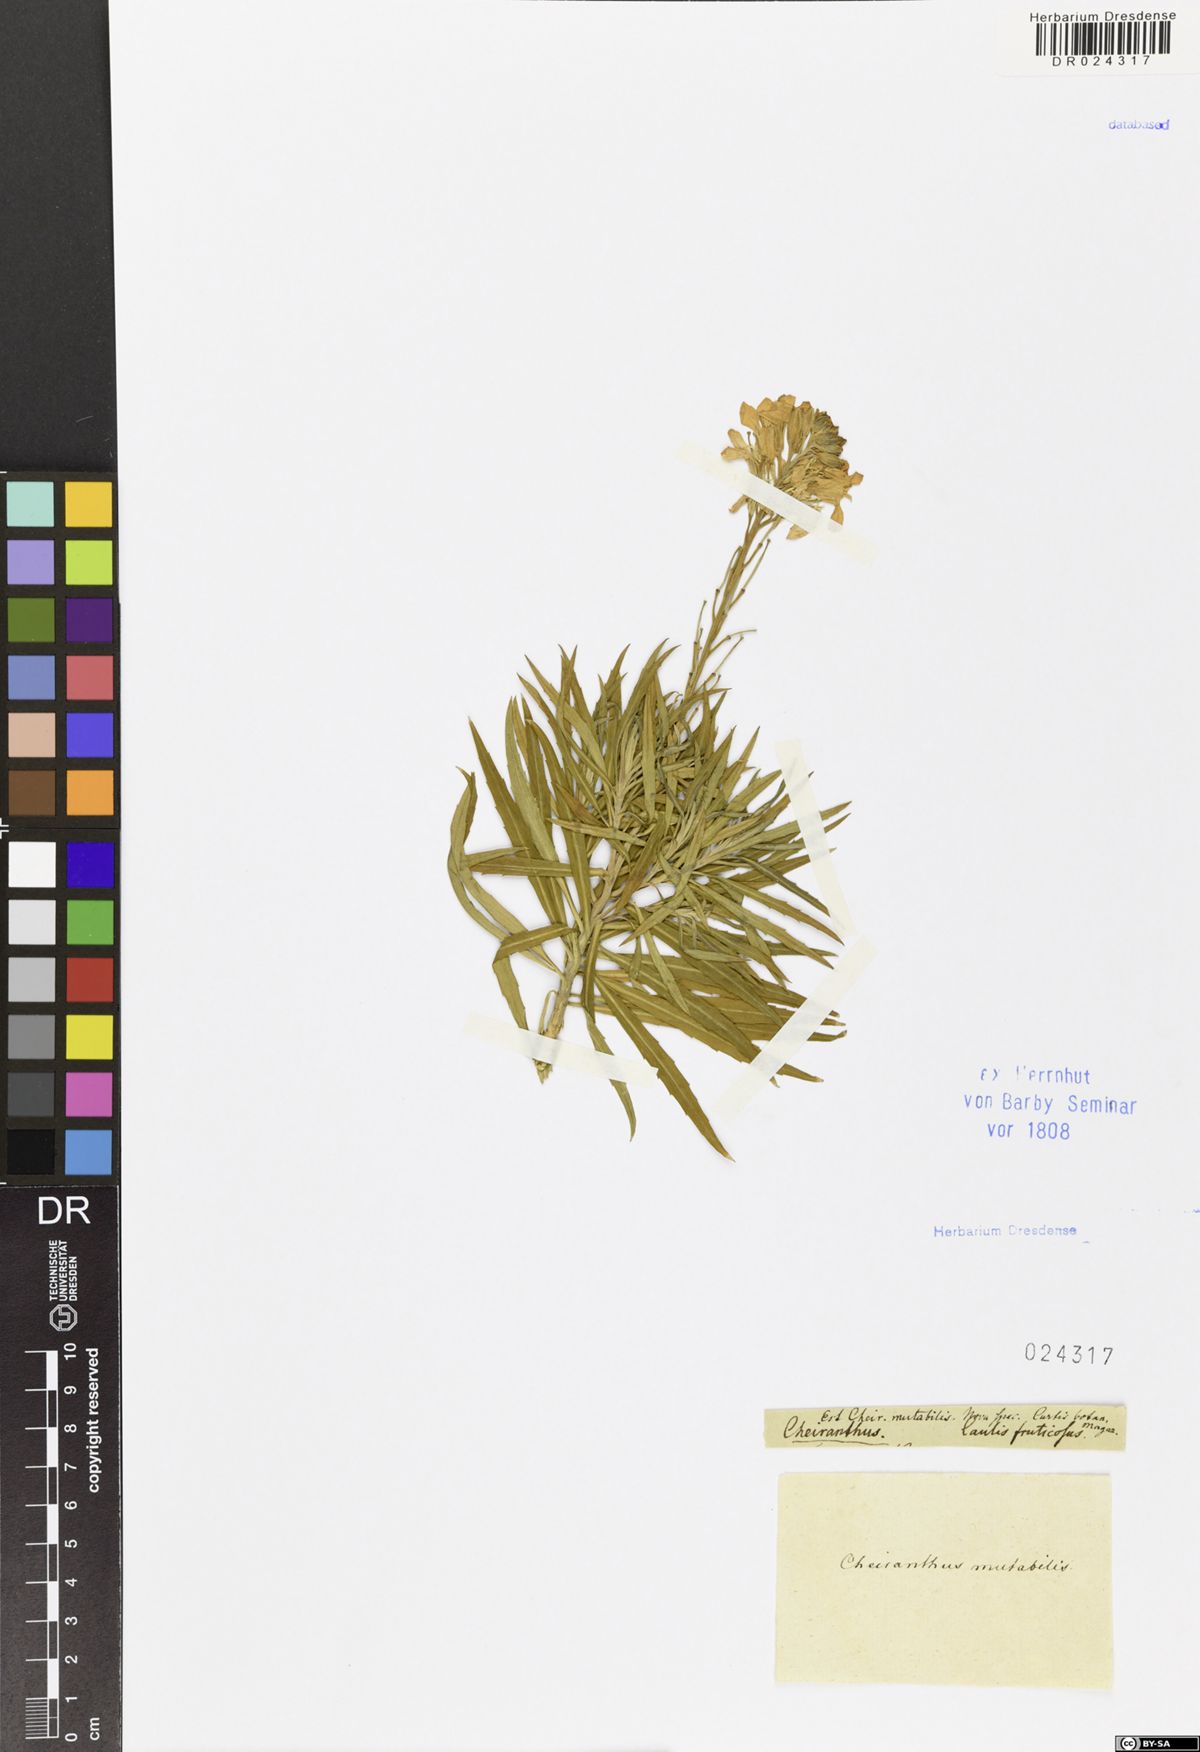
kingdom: Plantae
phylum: Tracheophyta
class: Magnoliopsida
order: Brassicales
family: Brassicaceae
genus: Matthiola
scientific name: Matthiola incana
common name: Hoary stock
